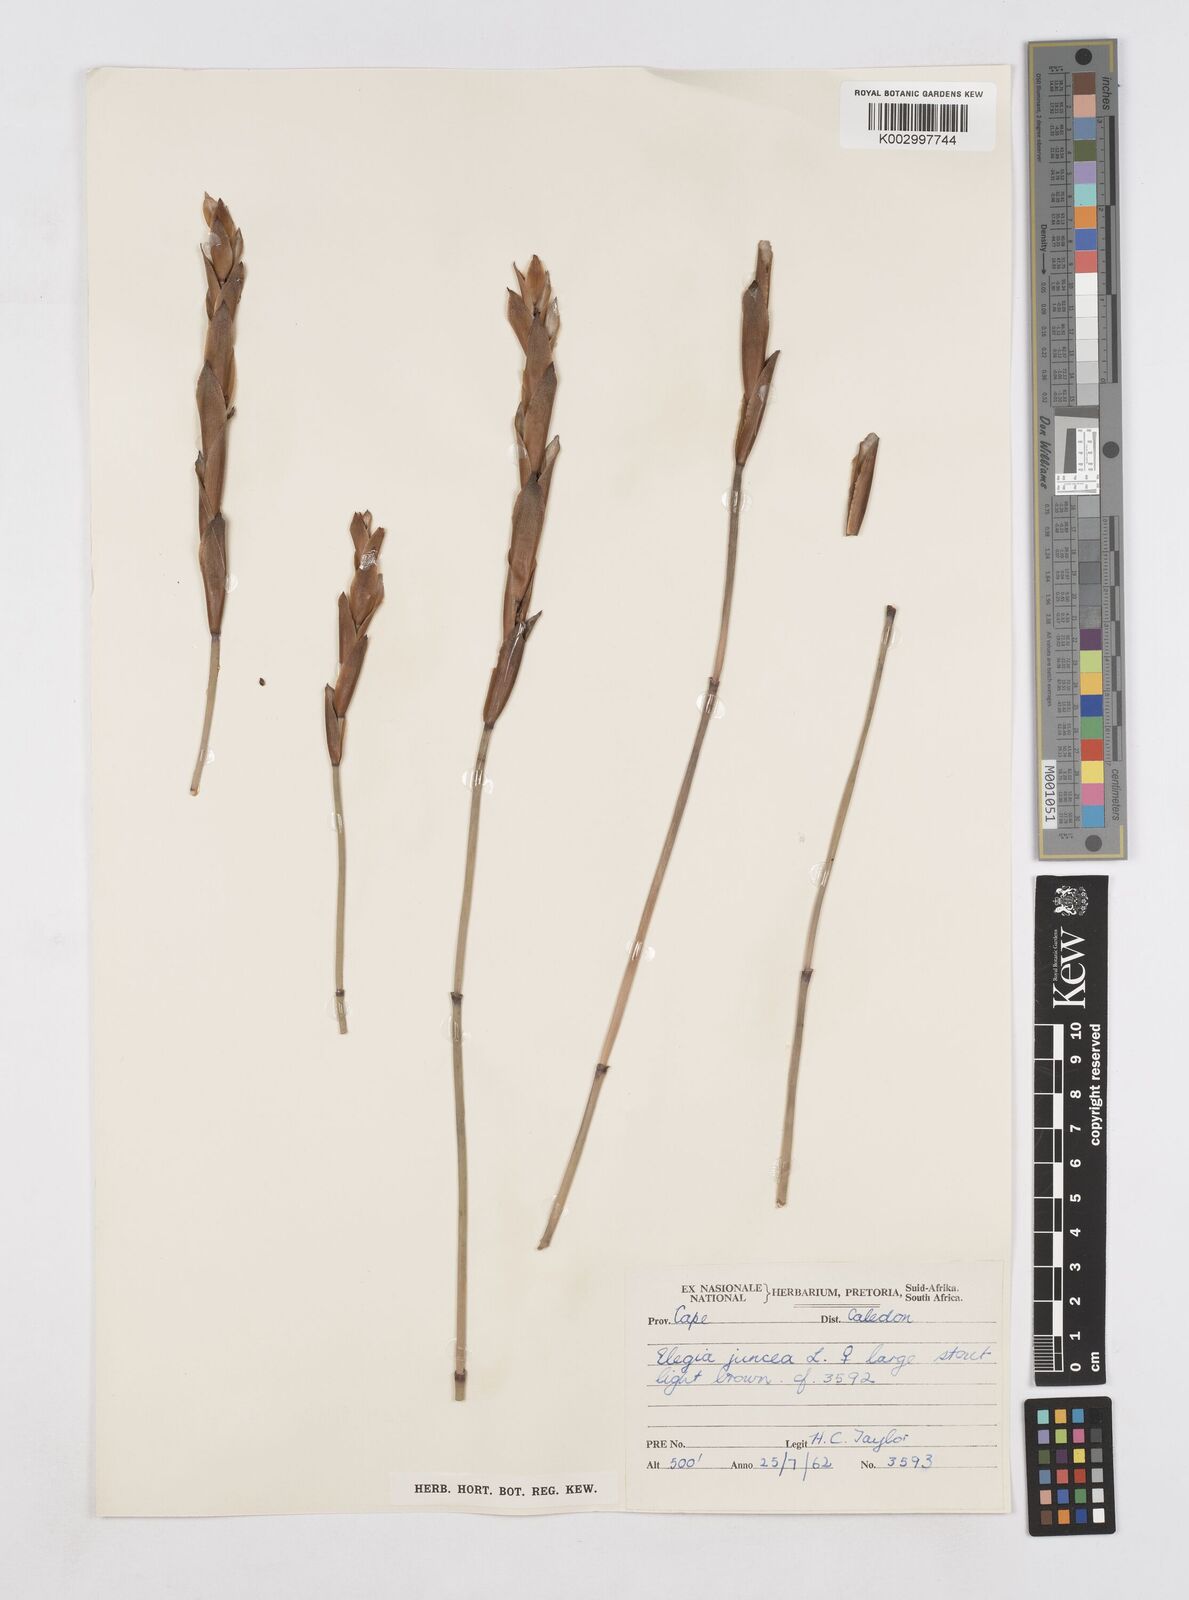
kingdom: Plantae
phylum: Tracheophyta
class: Liliopsida
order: Poales
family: Restionaceae
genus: Elegia
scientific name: Elegia juncea
